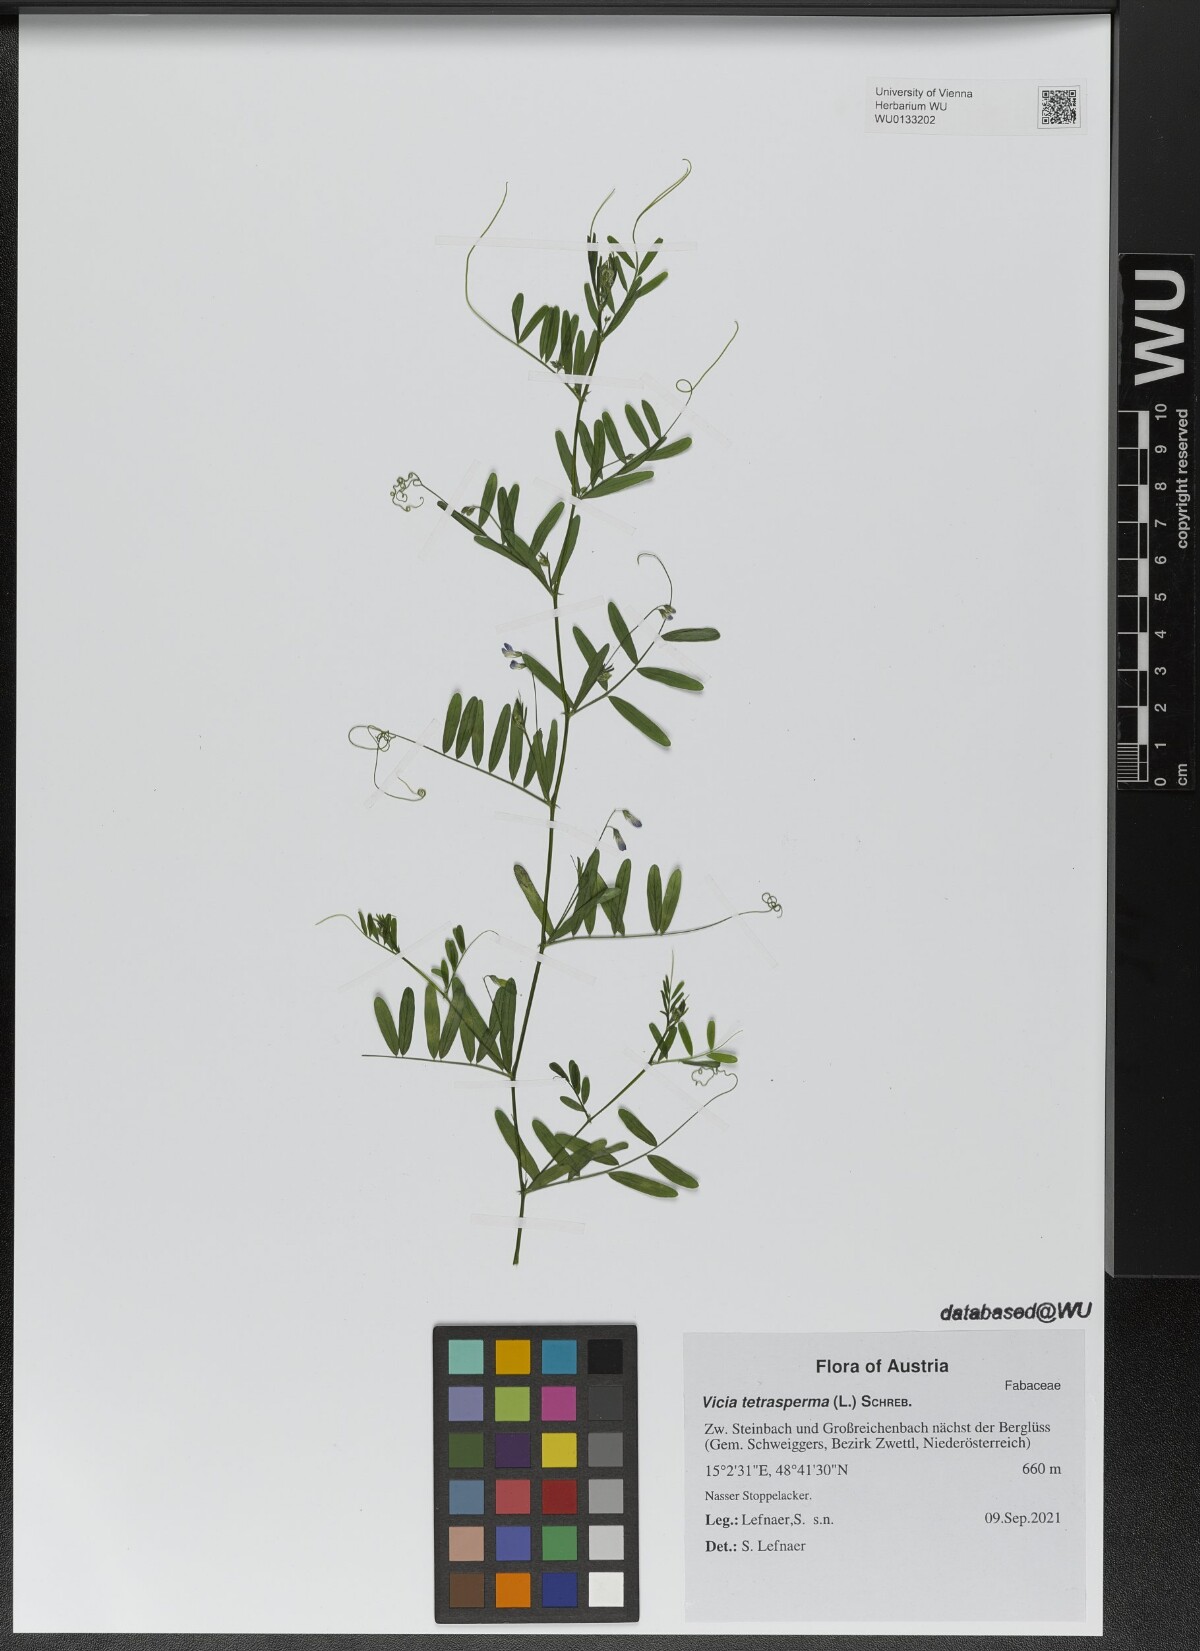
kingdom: Plantae
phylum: Tracheophyta
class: Magnoliopsida
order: Fabales
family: Fabaceae
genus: Vicia
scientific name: Vicia tetrasperma
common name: Smooth tare
